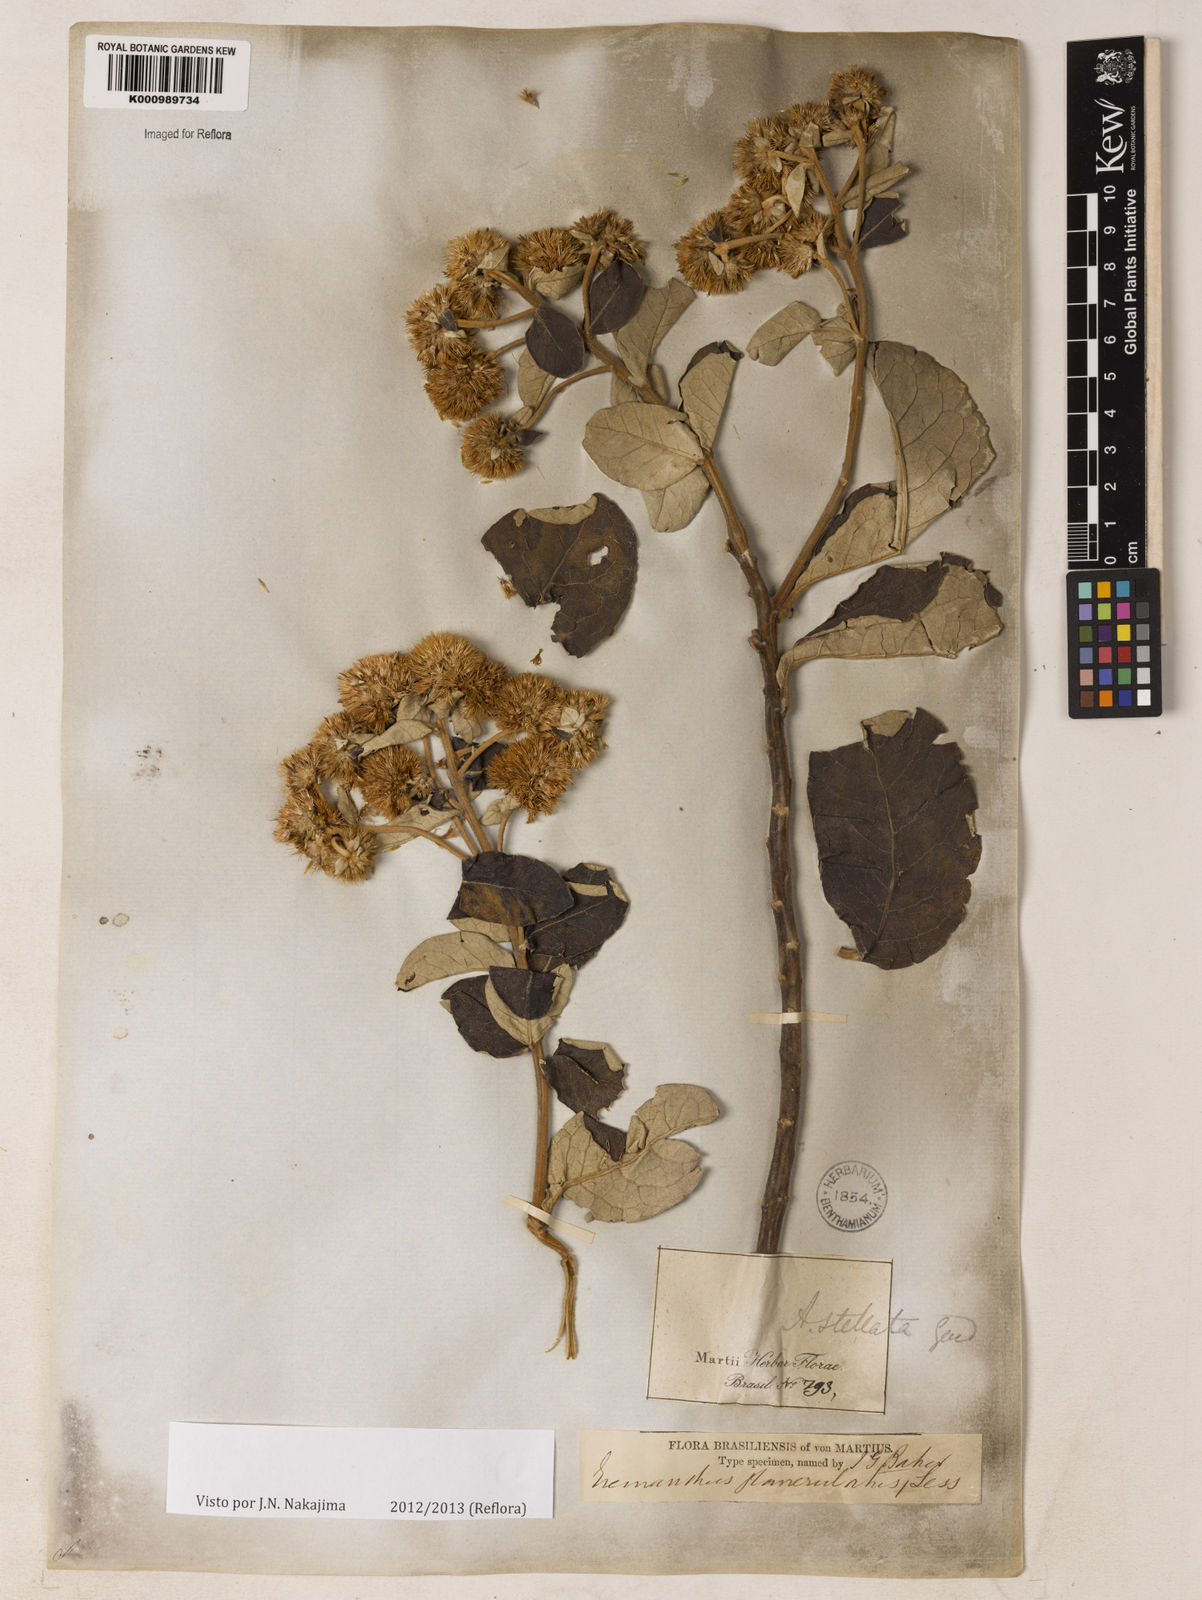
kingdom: Plantae
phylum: Tracheophyta
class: Magnoliopsida
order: Asterales
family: Asteraceae
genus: Eremanthus
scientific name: Eremanthus glomerulatus
